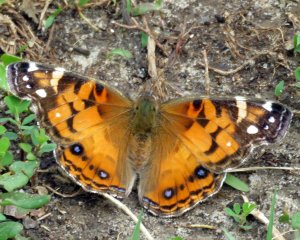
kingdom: Animalia
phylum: Arthropoda
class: Insecta
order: Lepidoptera
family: Nymphalidae
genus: Vanessa
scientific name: Vanessa virginiensis
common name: American Lady
